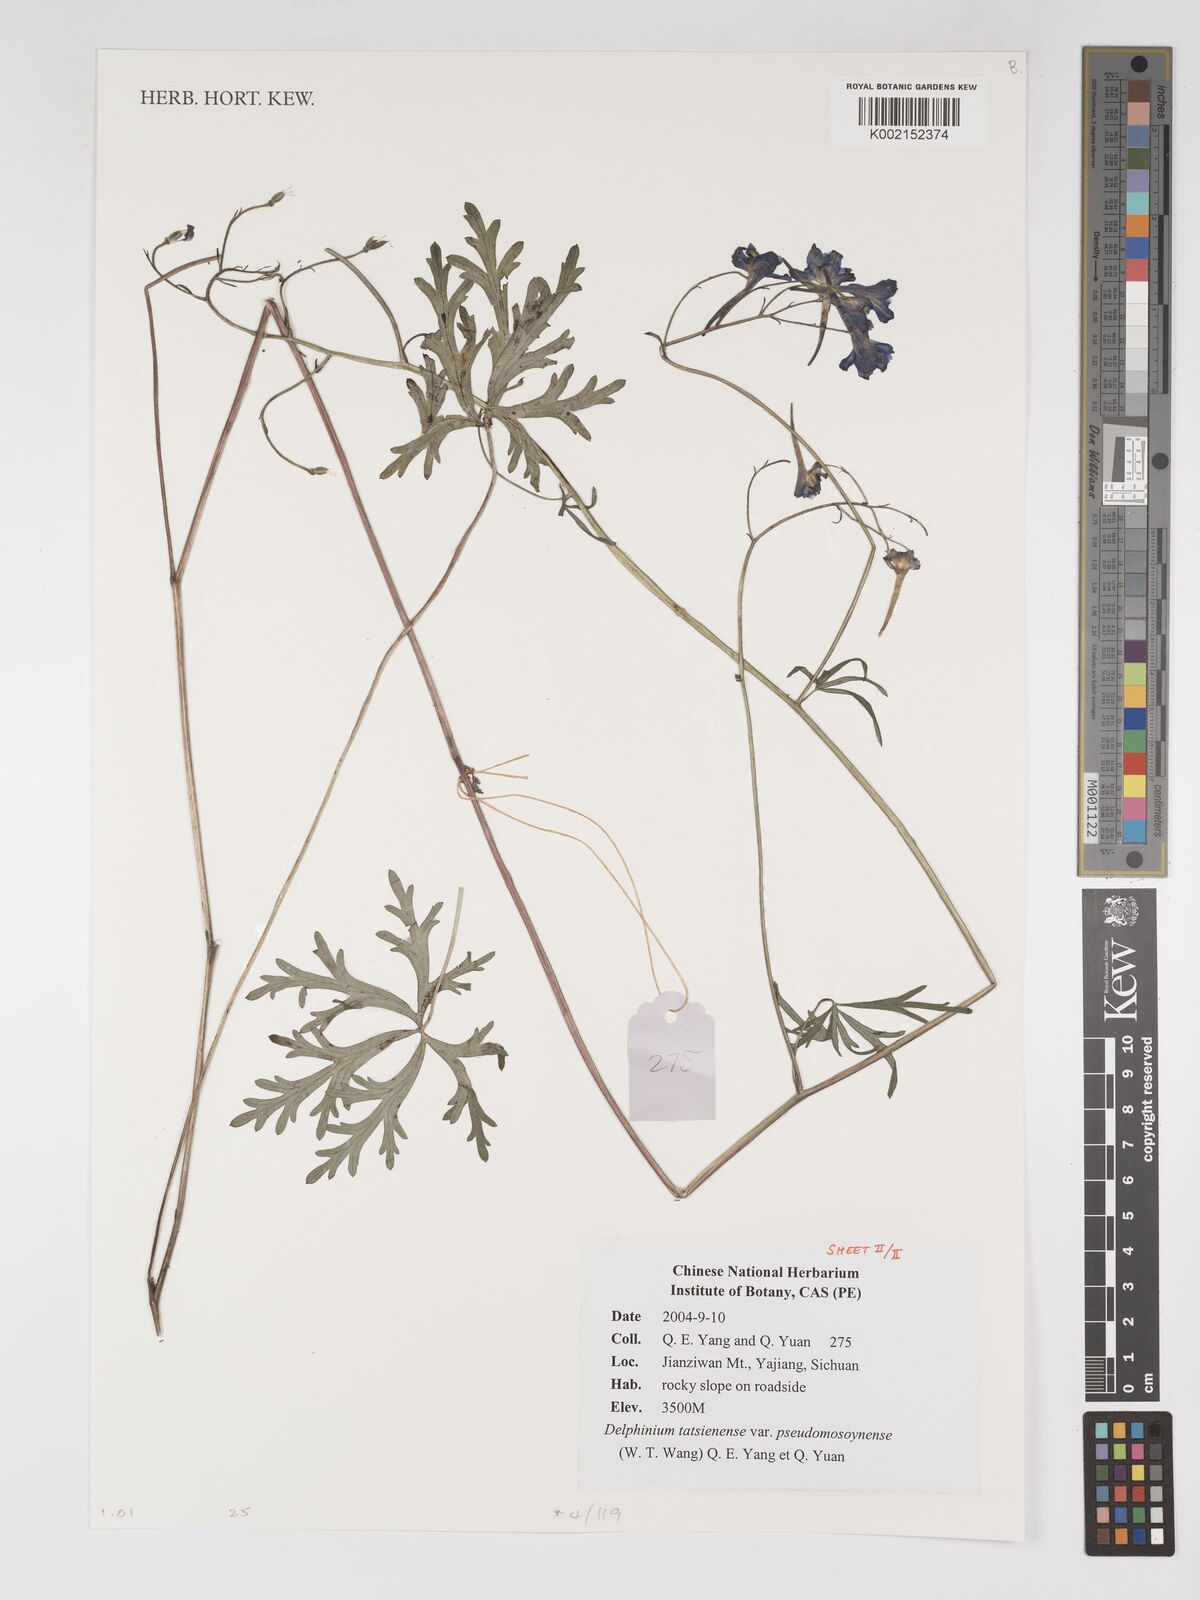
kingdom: Plantae
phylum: Tracheophyta
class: Magnoliopsida
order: Ranunculales
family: Ranunculaceae
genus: Delphinium
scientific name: Delphinium tatsienense
